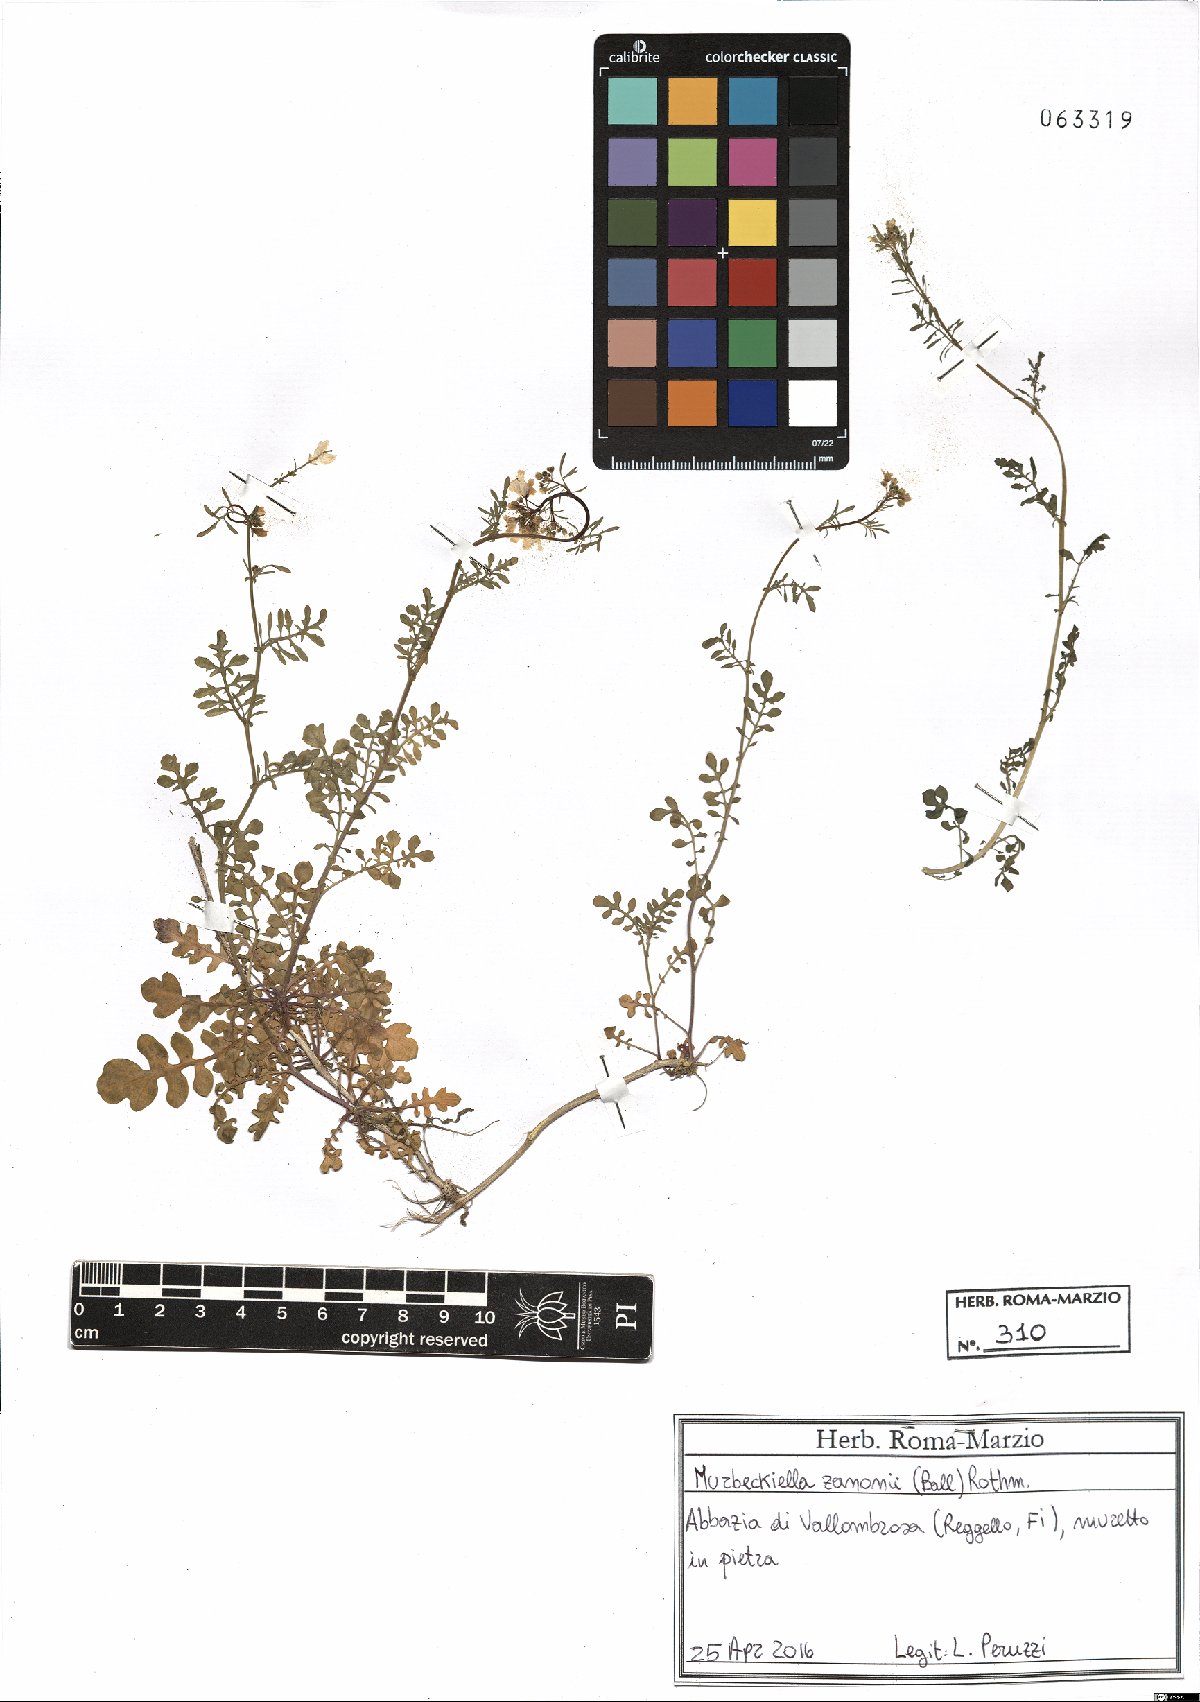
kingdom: Plantae
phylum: Tracheophyta
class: Magnoliopsida
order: Brassicales
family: Brassicaceae
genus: Murbeckiella
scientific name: Murbeckiella zanonii
